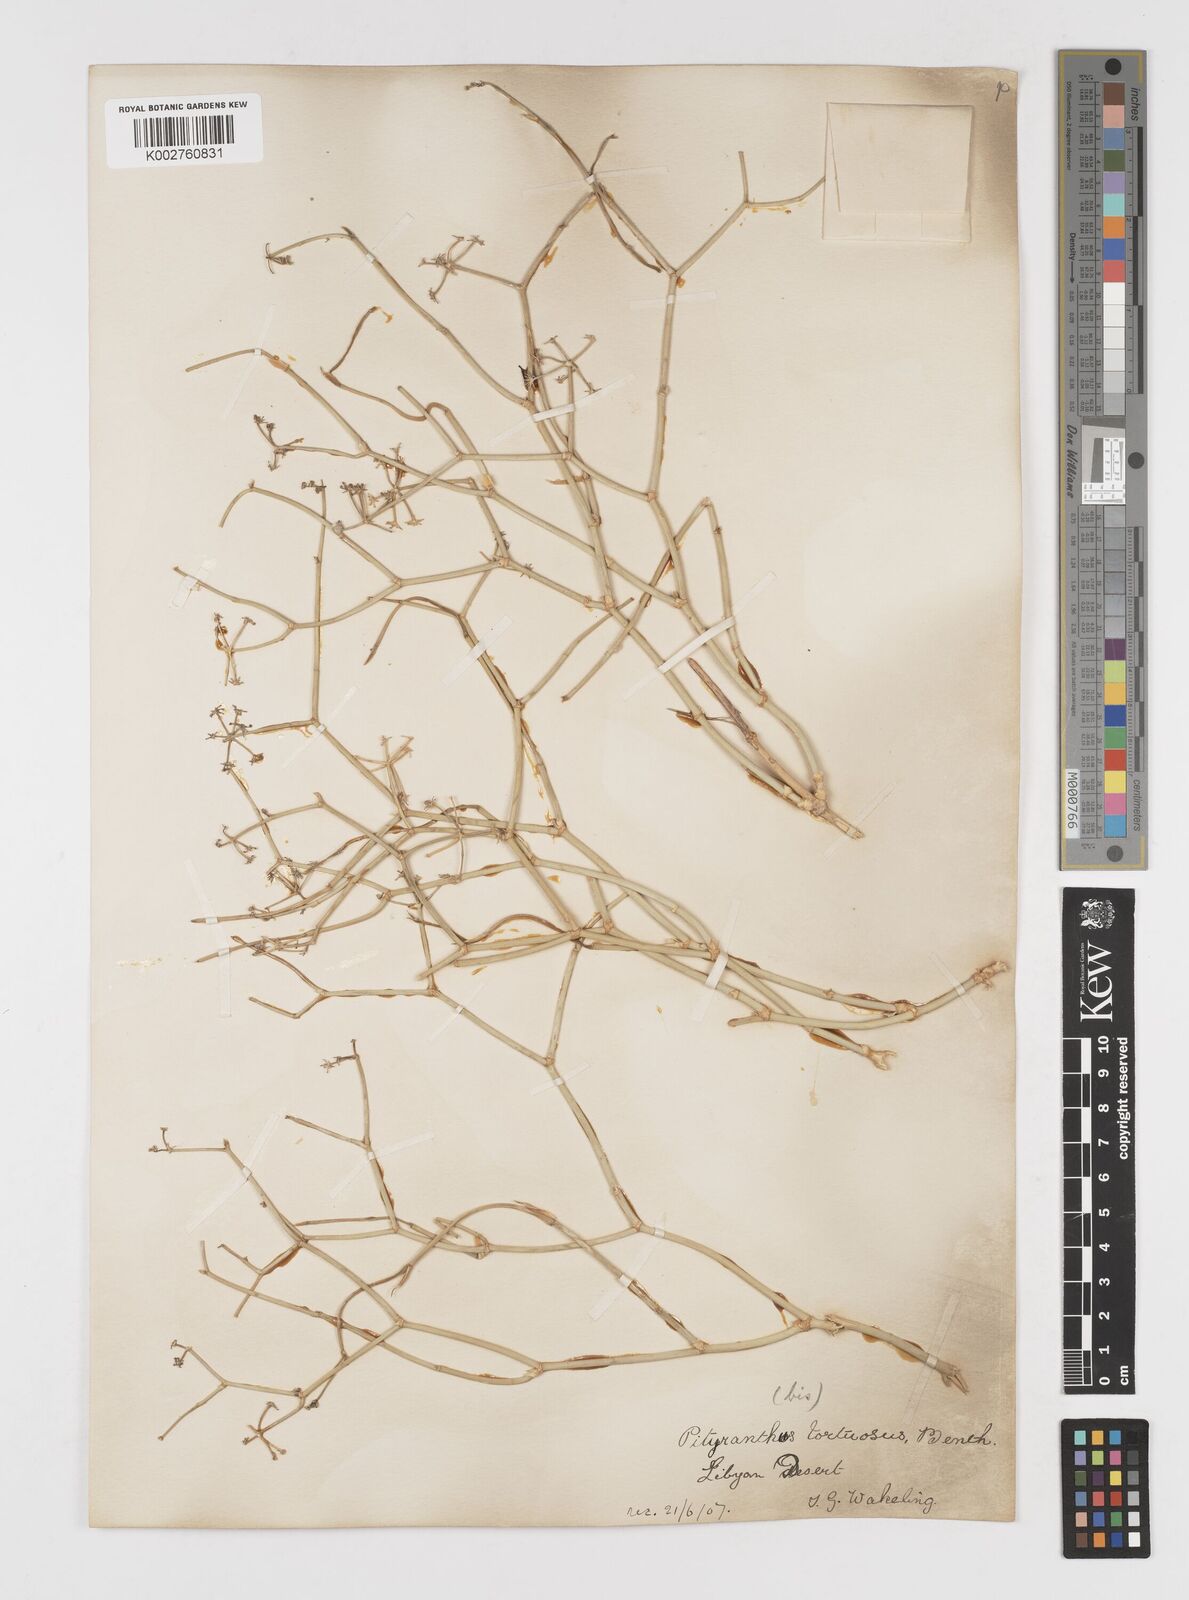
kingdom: Plantae
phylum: Tracheophyta
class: Magnoliopsida
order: Apiales
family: Apiaceae
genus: Deverra
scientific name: Deverra tortuosa
